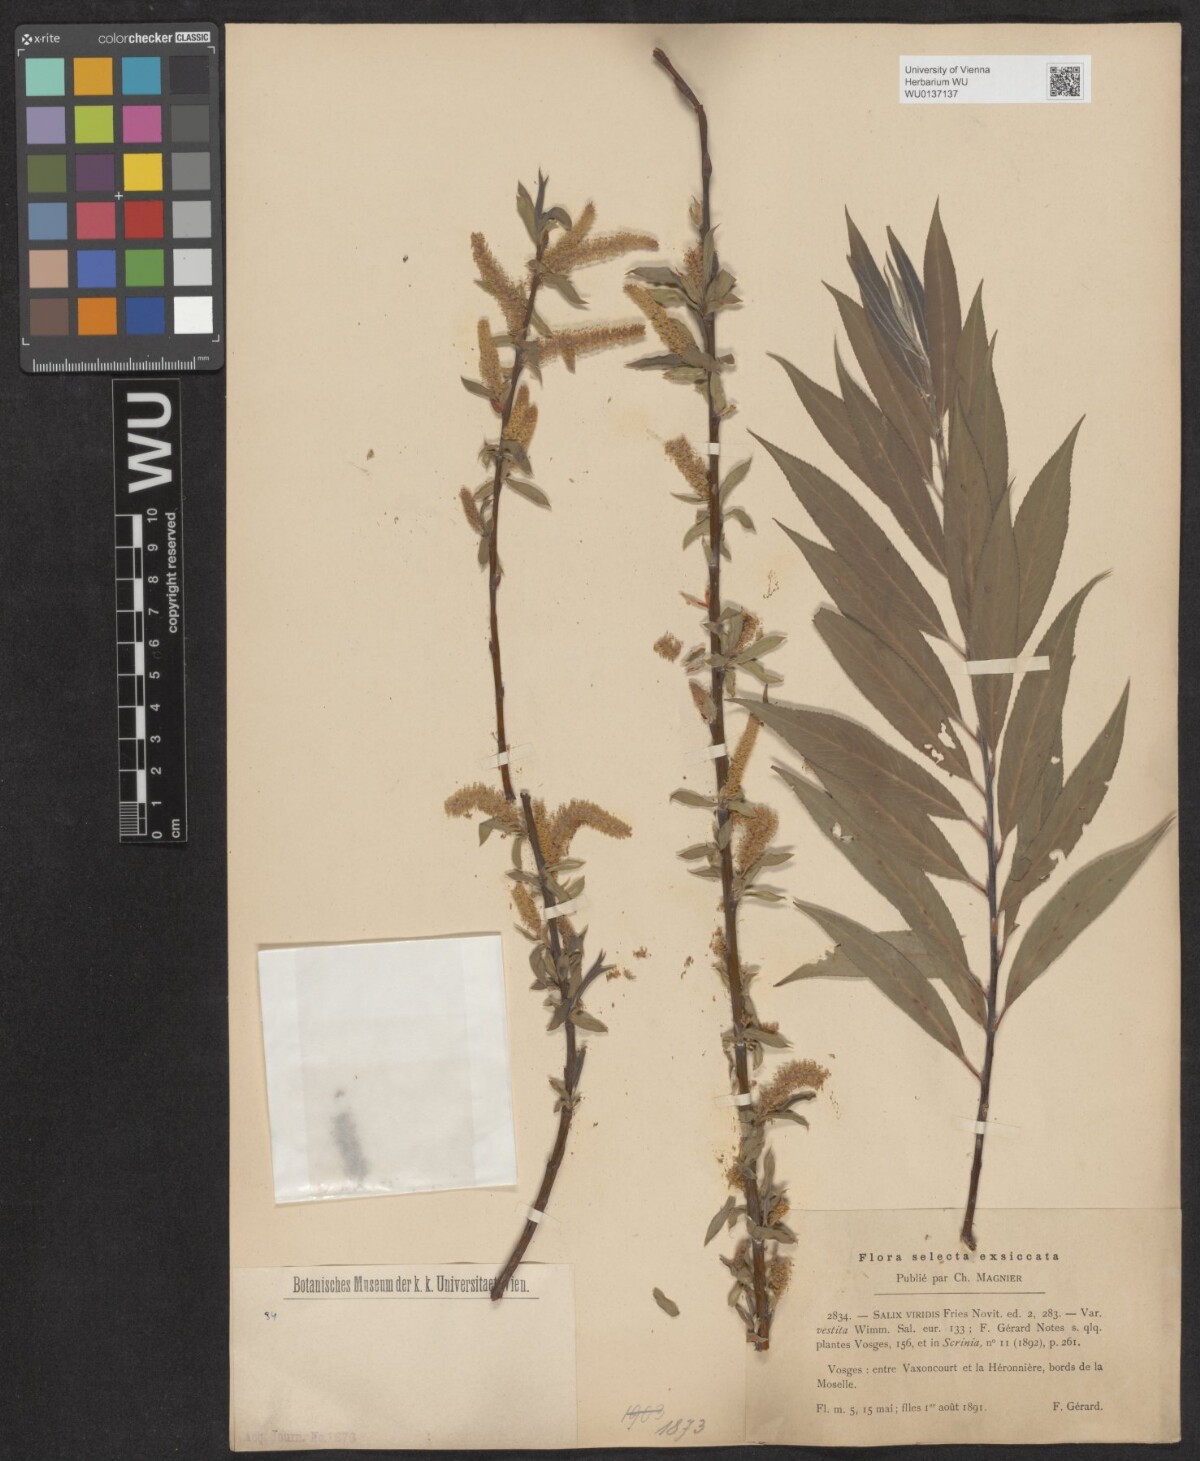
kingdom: Plantae
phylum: Tracheophyta
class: Magnoliopsida
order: Malpighiales
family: Salicaceae
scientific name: Salicaceae
